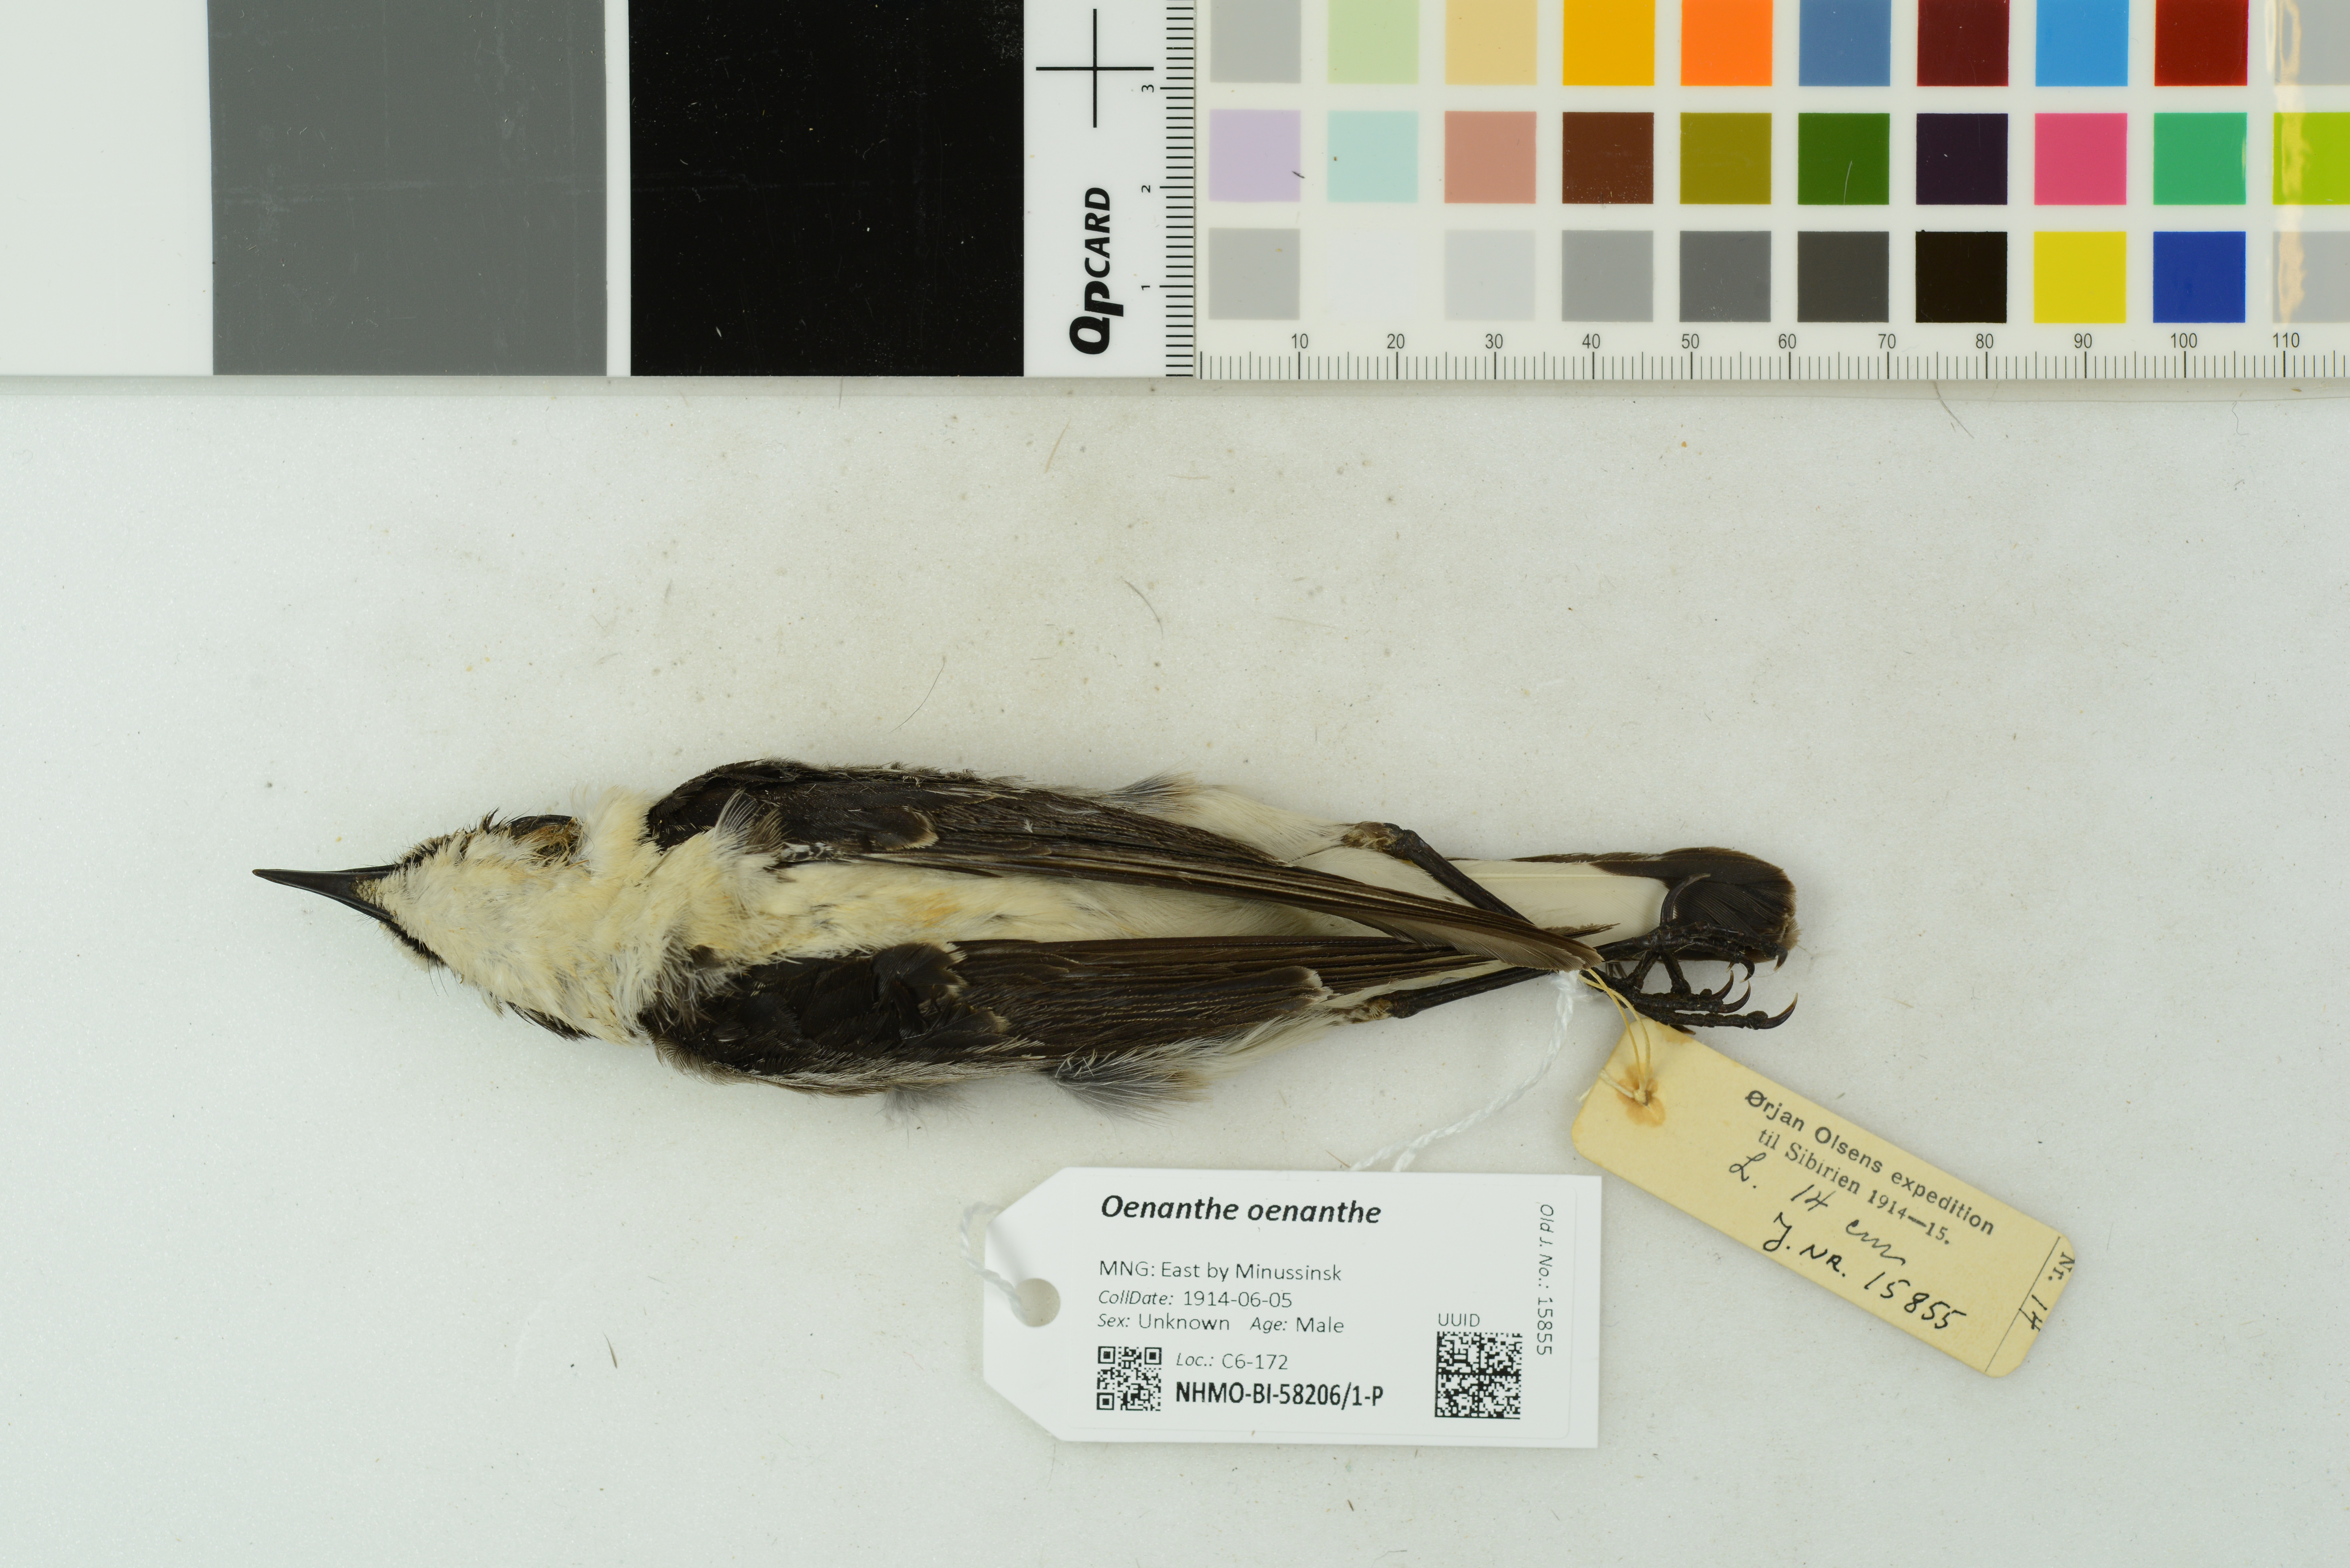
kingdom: Animalia
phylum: Chordata
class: Aves
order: Passeriformes
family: Muscicapidae
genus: Oenanthe
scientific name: Oenanthe oenanthe
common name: Northern wheatear
